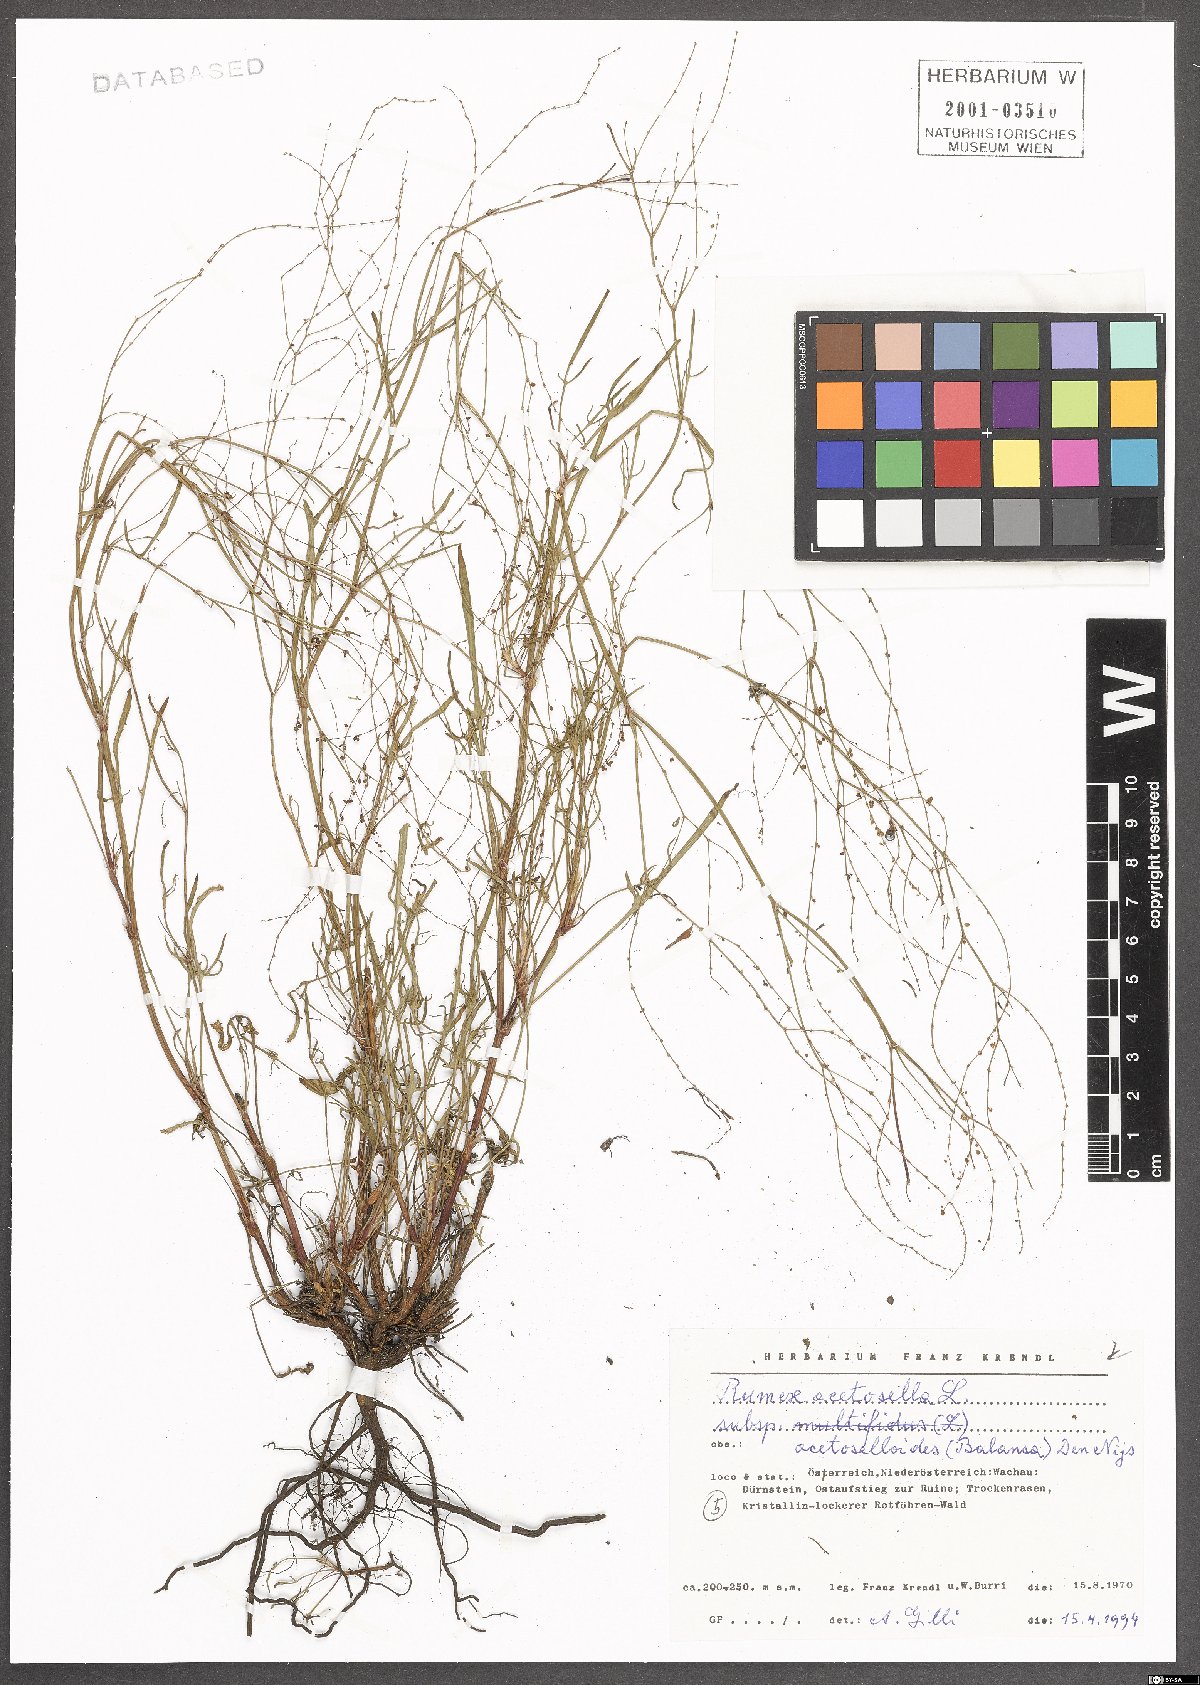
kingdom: Plantae
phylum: Tracheophyta
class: Magnoliopsida
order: Caryophyllales
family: Polygonaceae
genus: Rumex
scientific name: Rumex acetosella
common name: Common sheep sorrel
